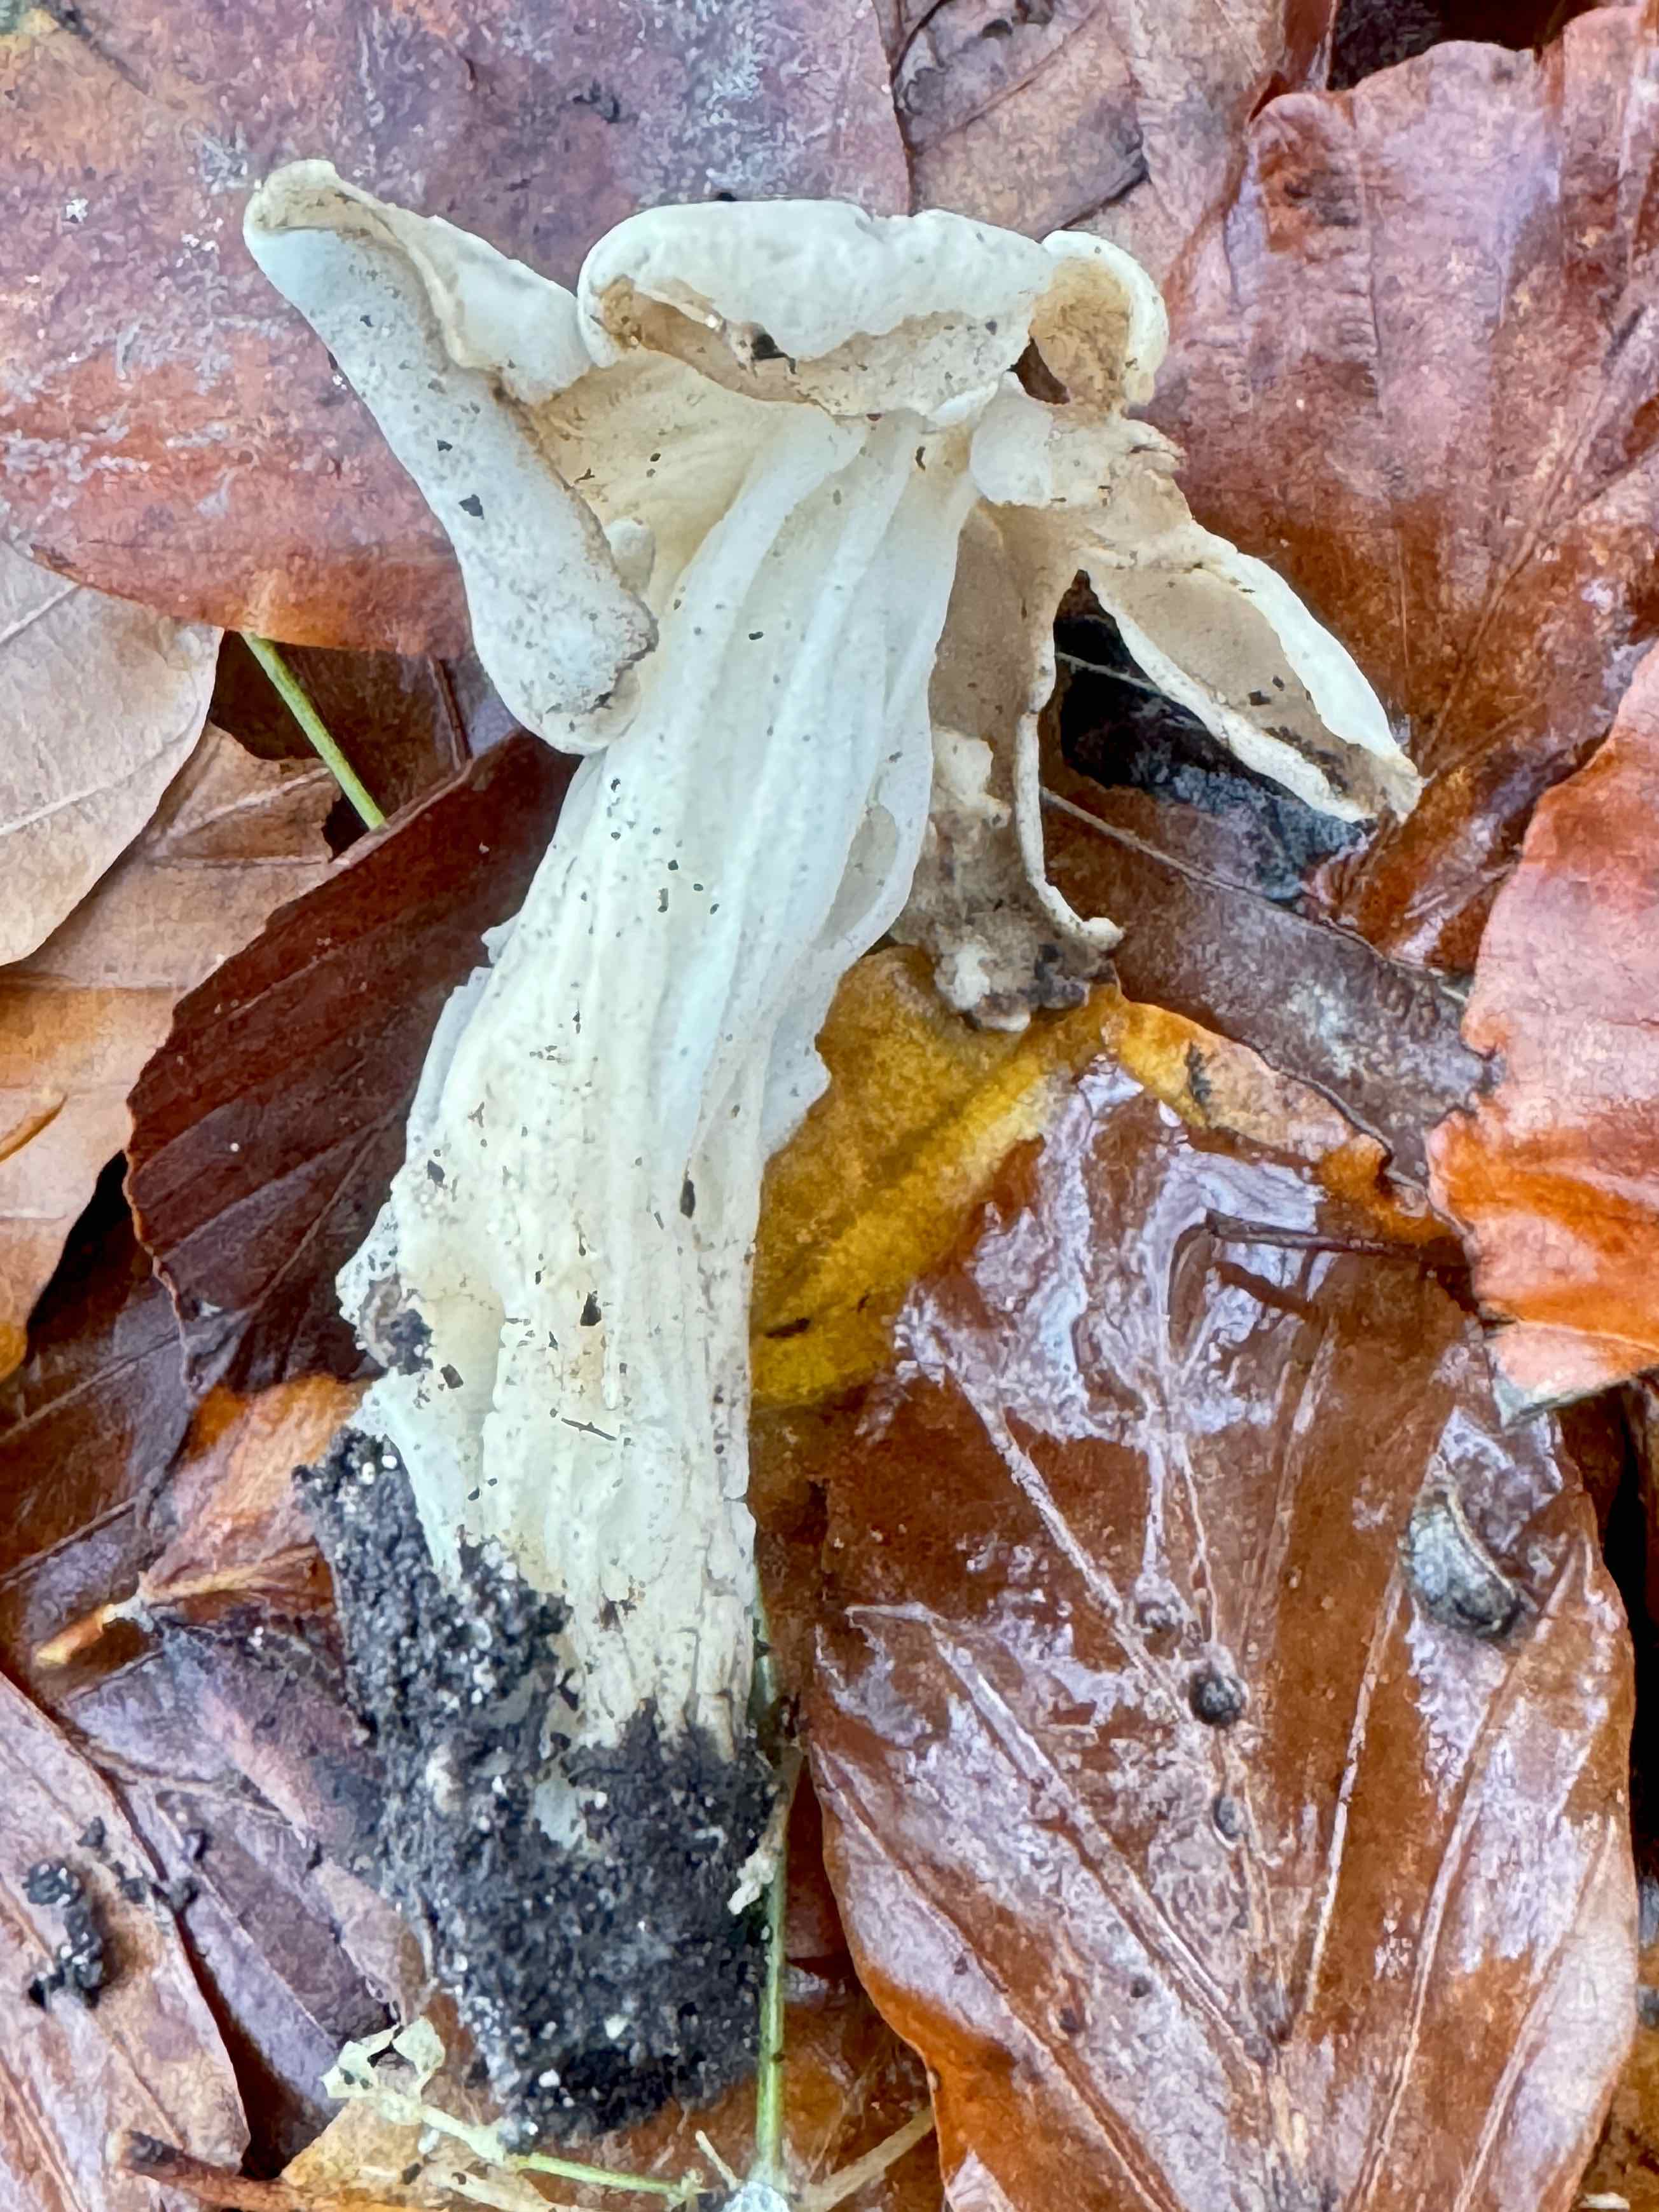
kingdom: Fungi
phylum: Ascomycota
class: Pezizomycetes
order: Pezizales
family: Helvellaceae
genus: Helvella
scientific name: Helvella crispa
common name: kruset foldhat
